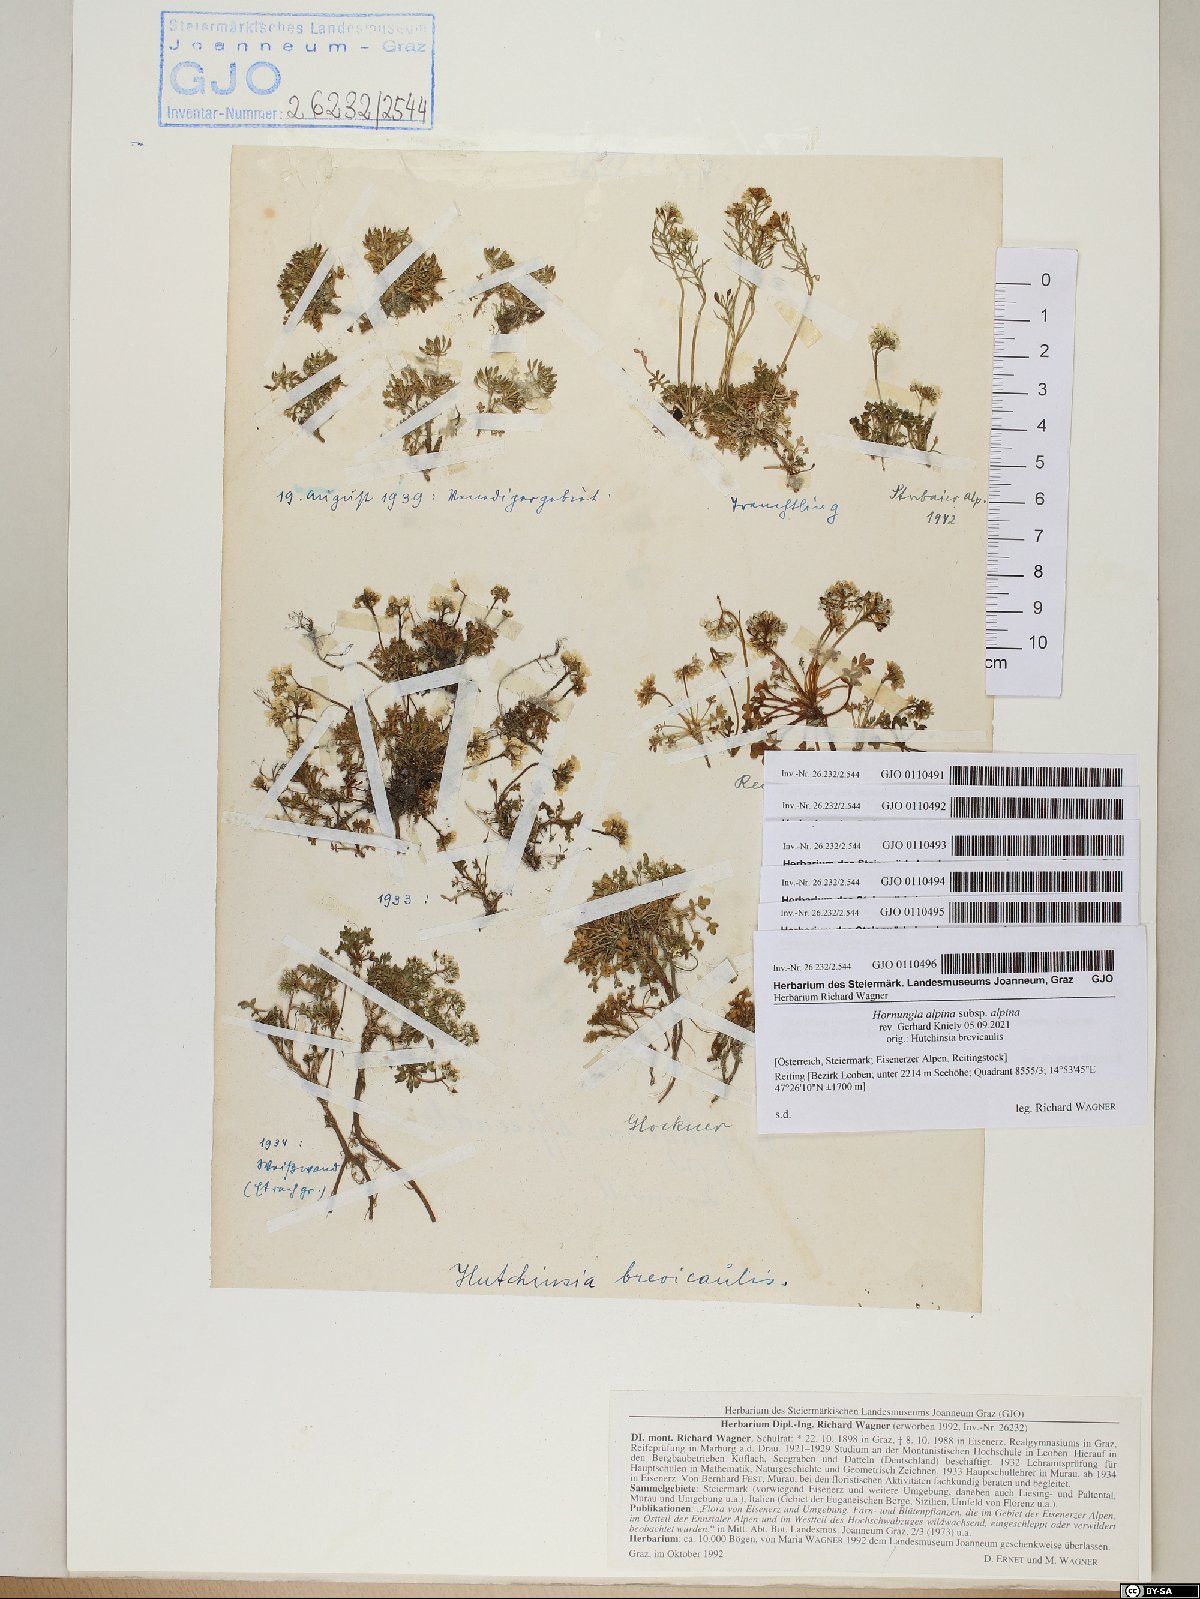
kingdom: Plantae
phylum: Tracheophyta
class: Magnoliopsida
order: Brassicales
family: Brassicaceae
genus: Hornungia
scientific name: Hornungia alpina
